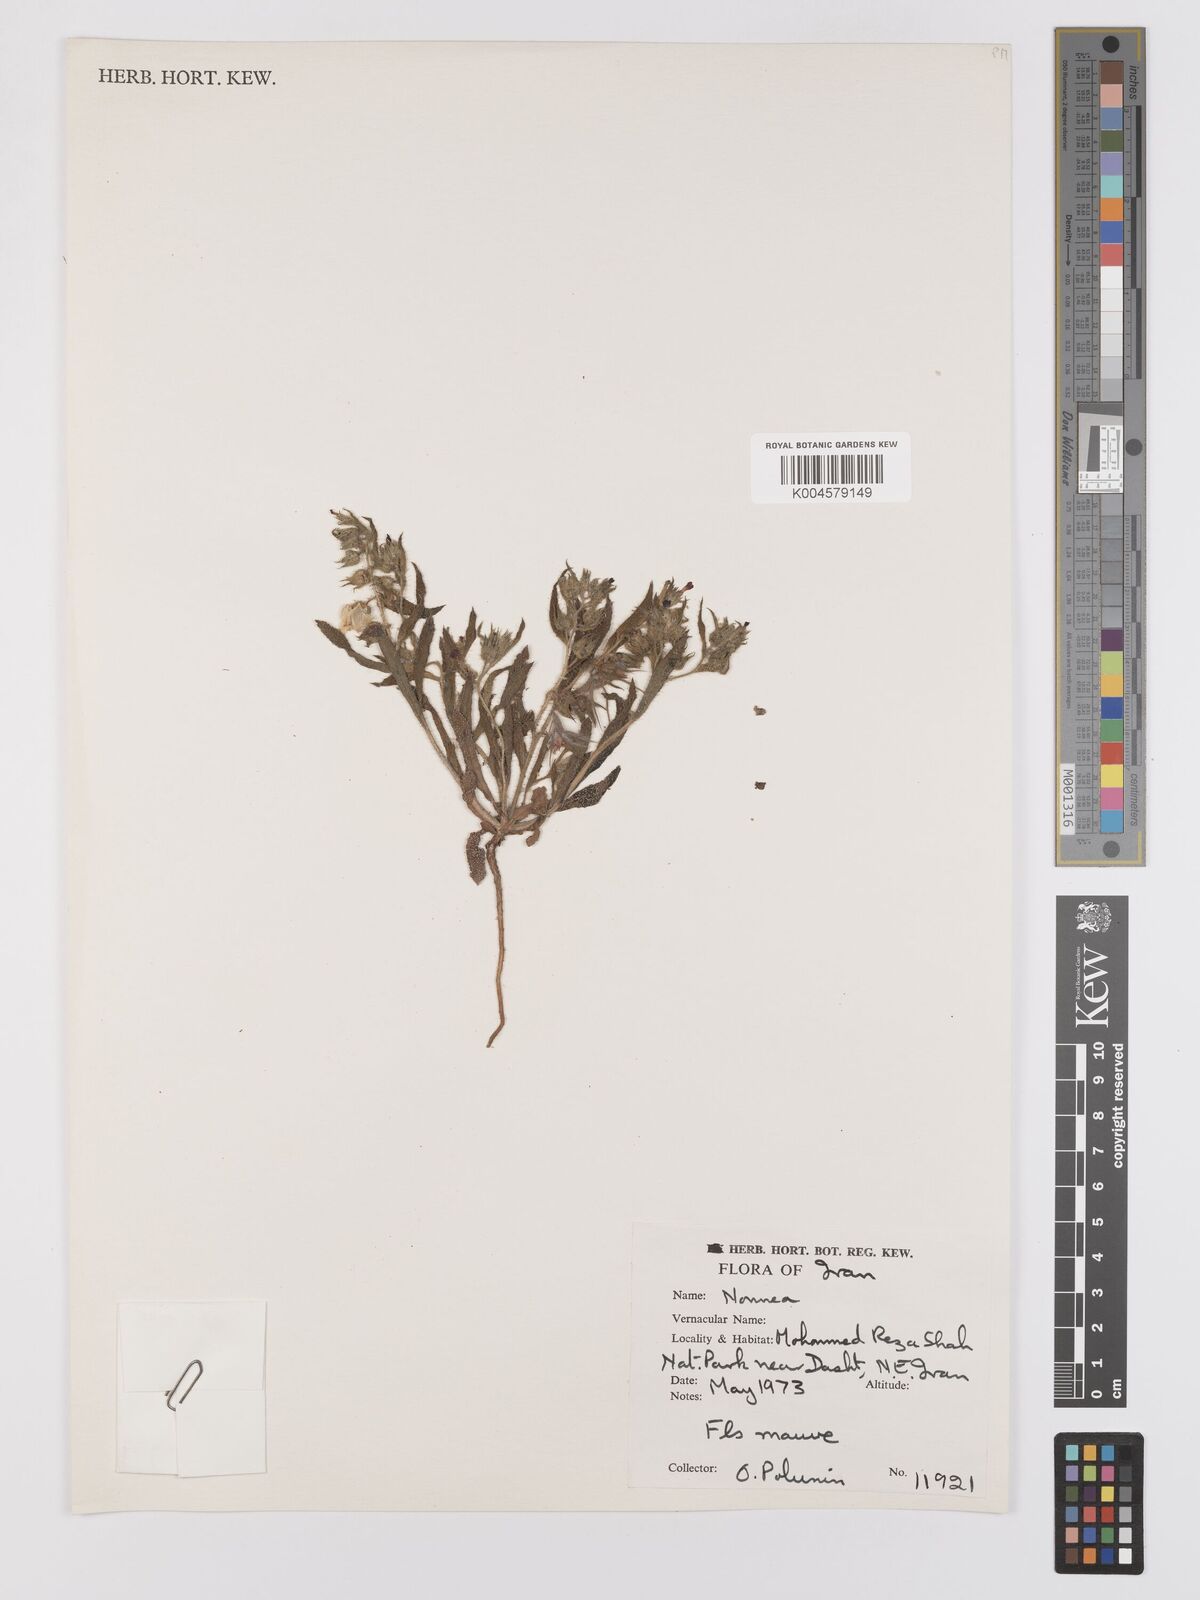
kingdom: Plantae
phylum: Tracheophyta
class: Magnoliopsida
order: Boraginales
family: Boraginaceae
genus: Nonea
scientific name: Nonea
